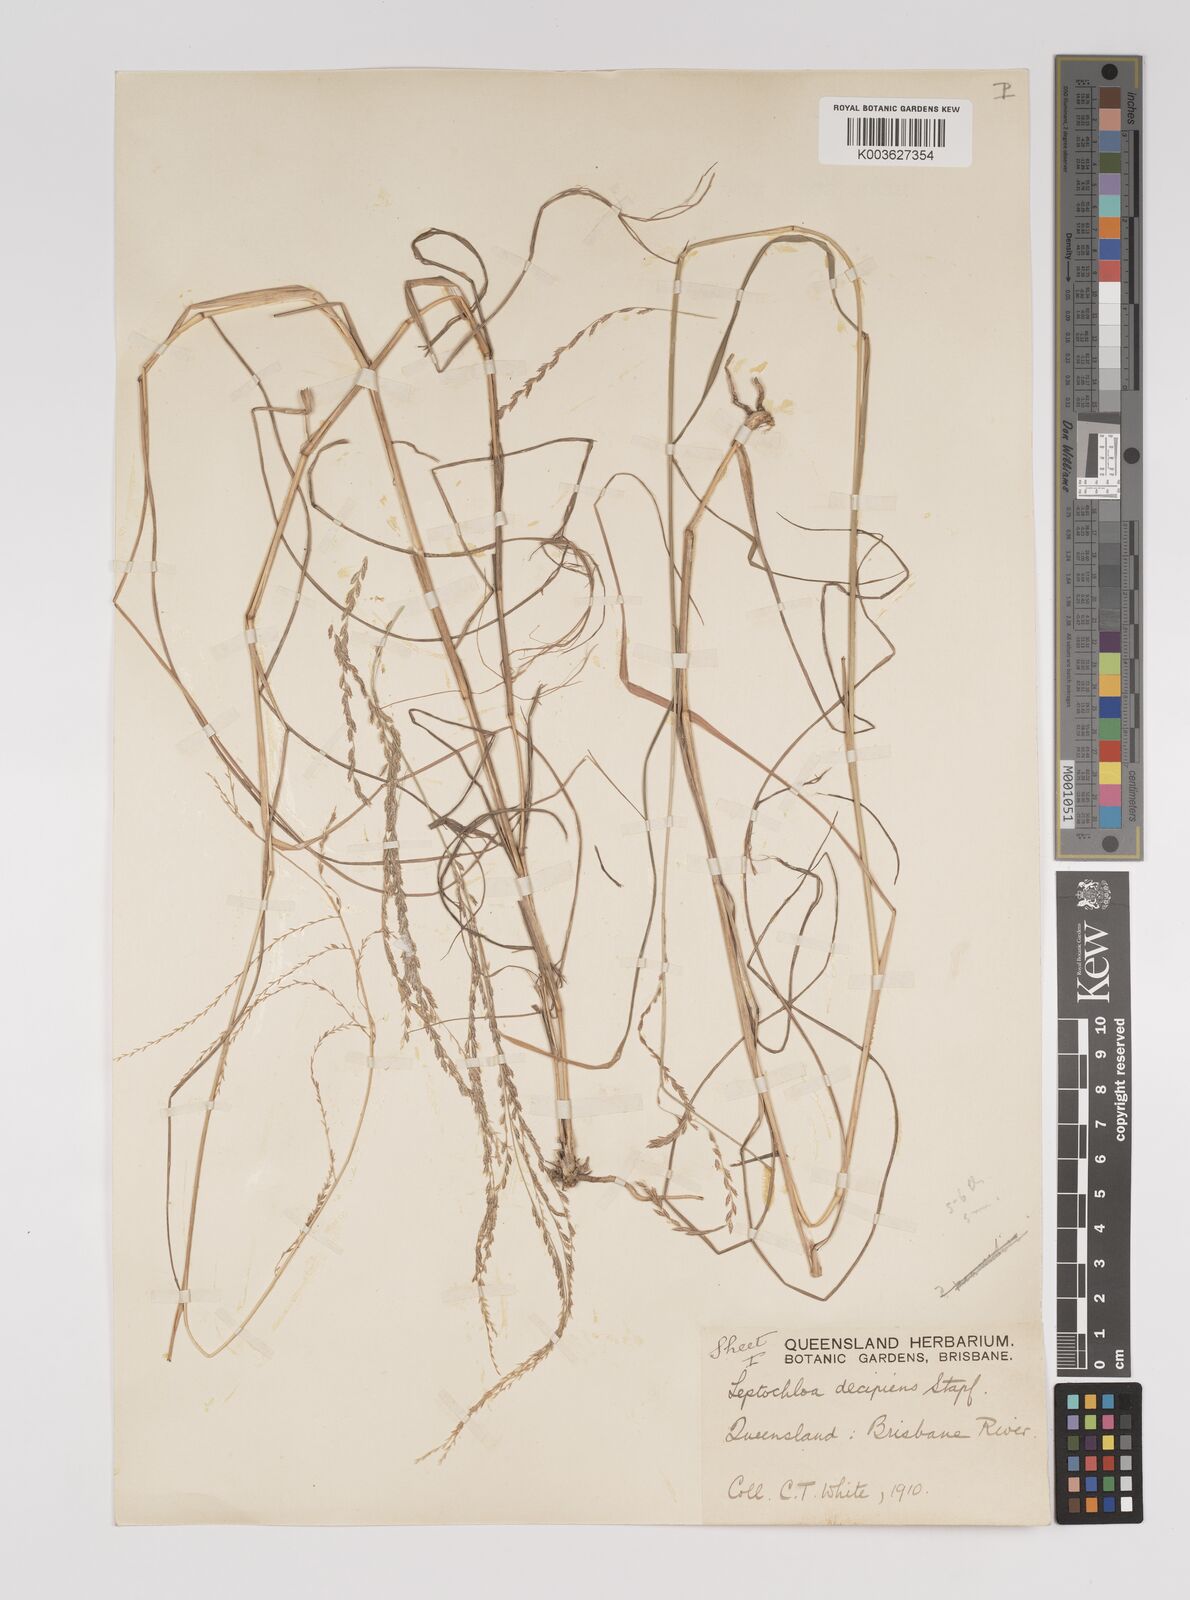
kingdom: Plantae
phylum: Tracheophyta
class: Liliopsida
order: Poales
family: Poaceae
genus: Leptochloa
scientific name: Leptochloa decipiens
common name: Australian sprangletop
